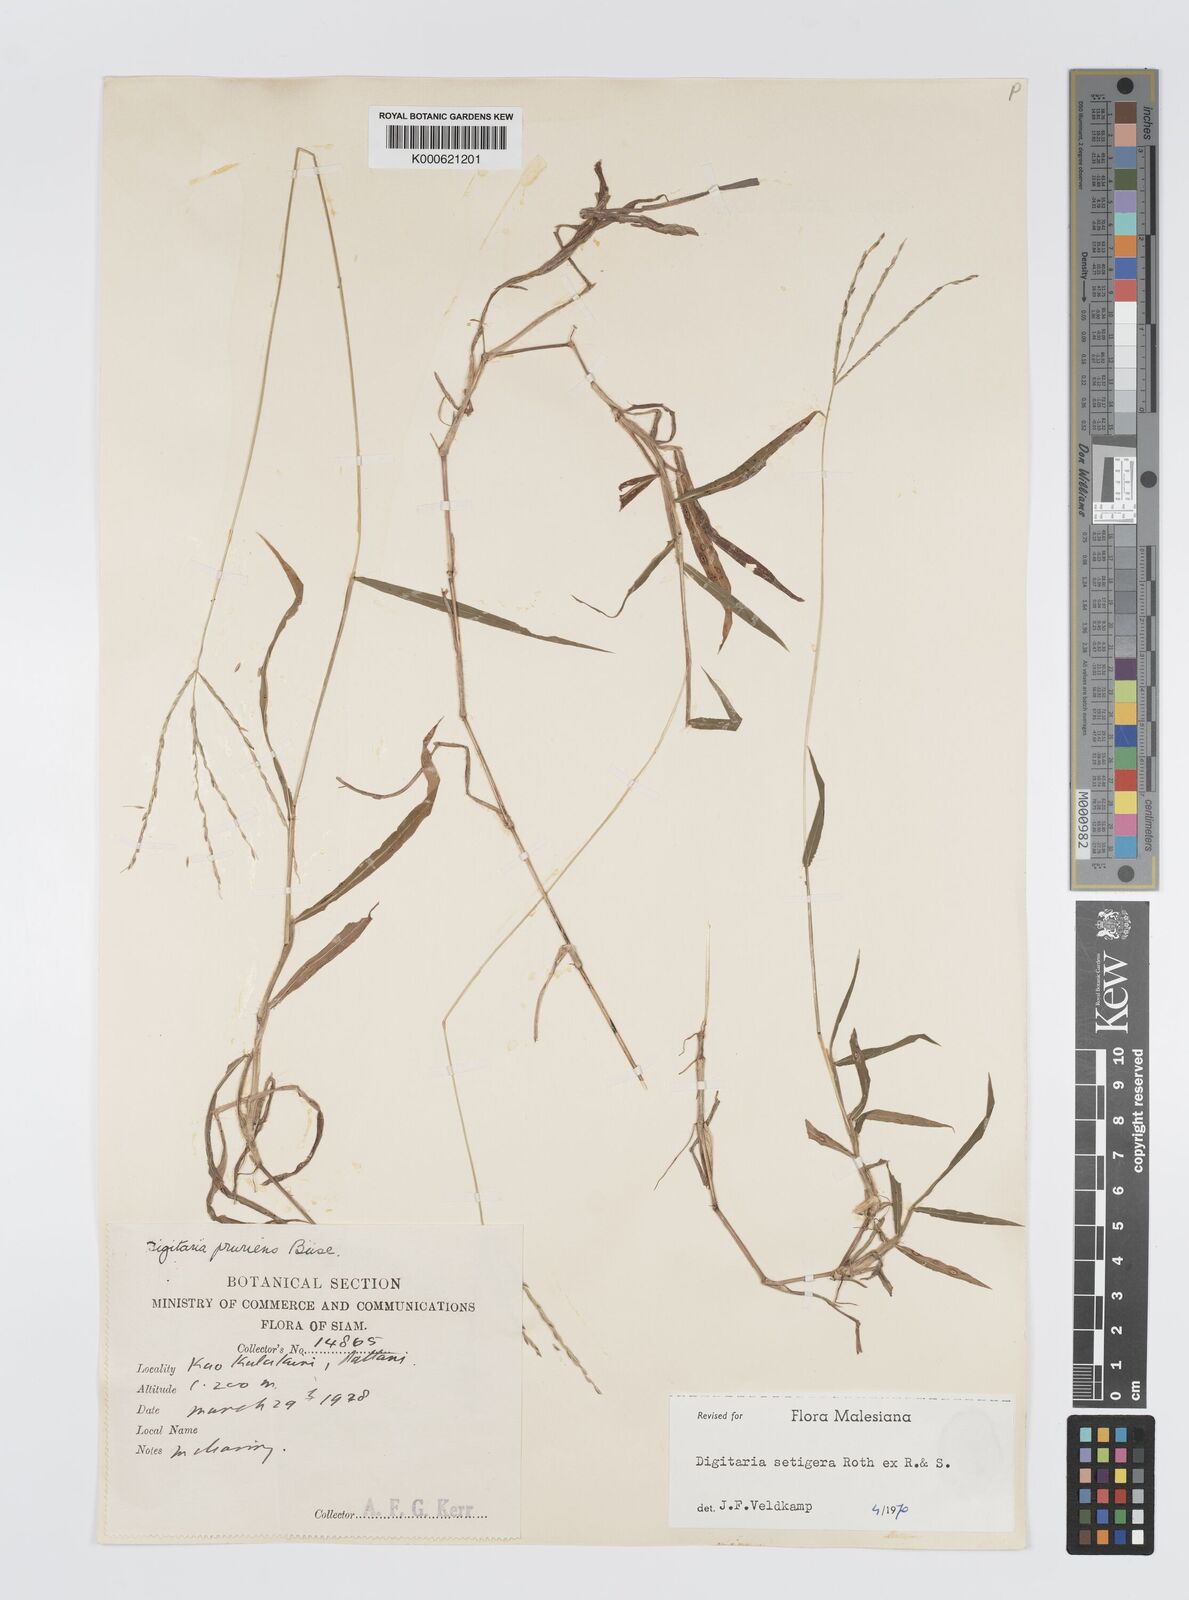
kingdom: Plantae
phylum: Tracheophyta
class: Liliopsida
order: Poales
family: Poaceae
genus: Digitaria
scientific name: Digitaria
